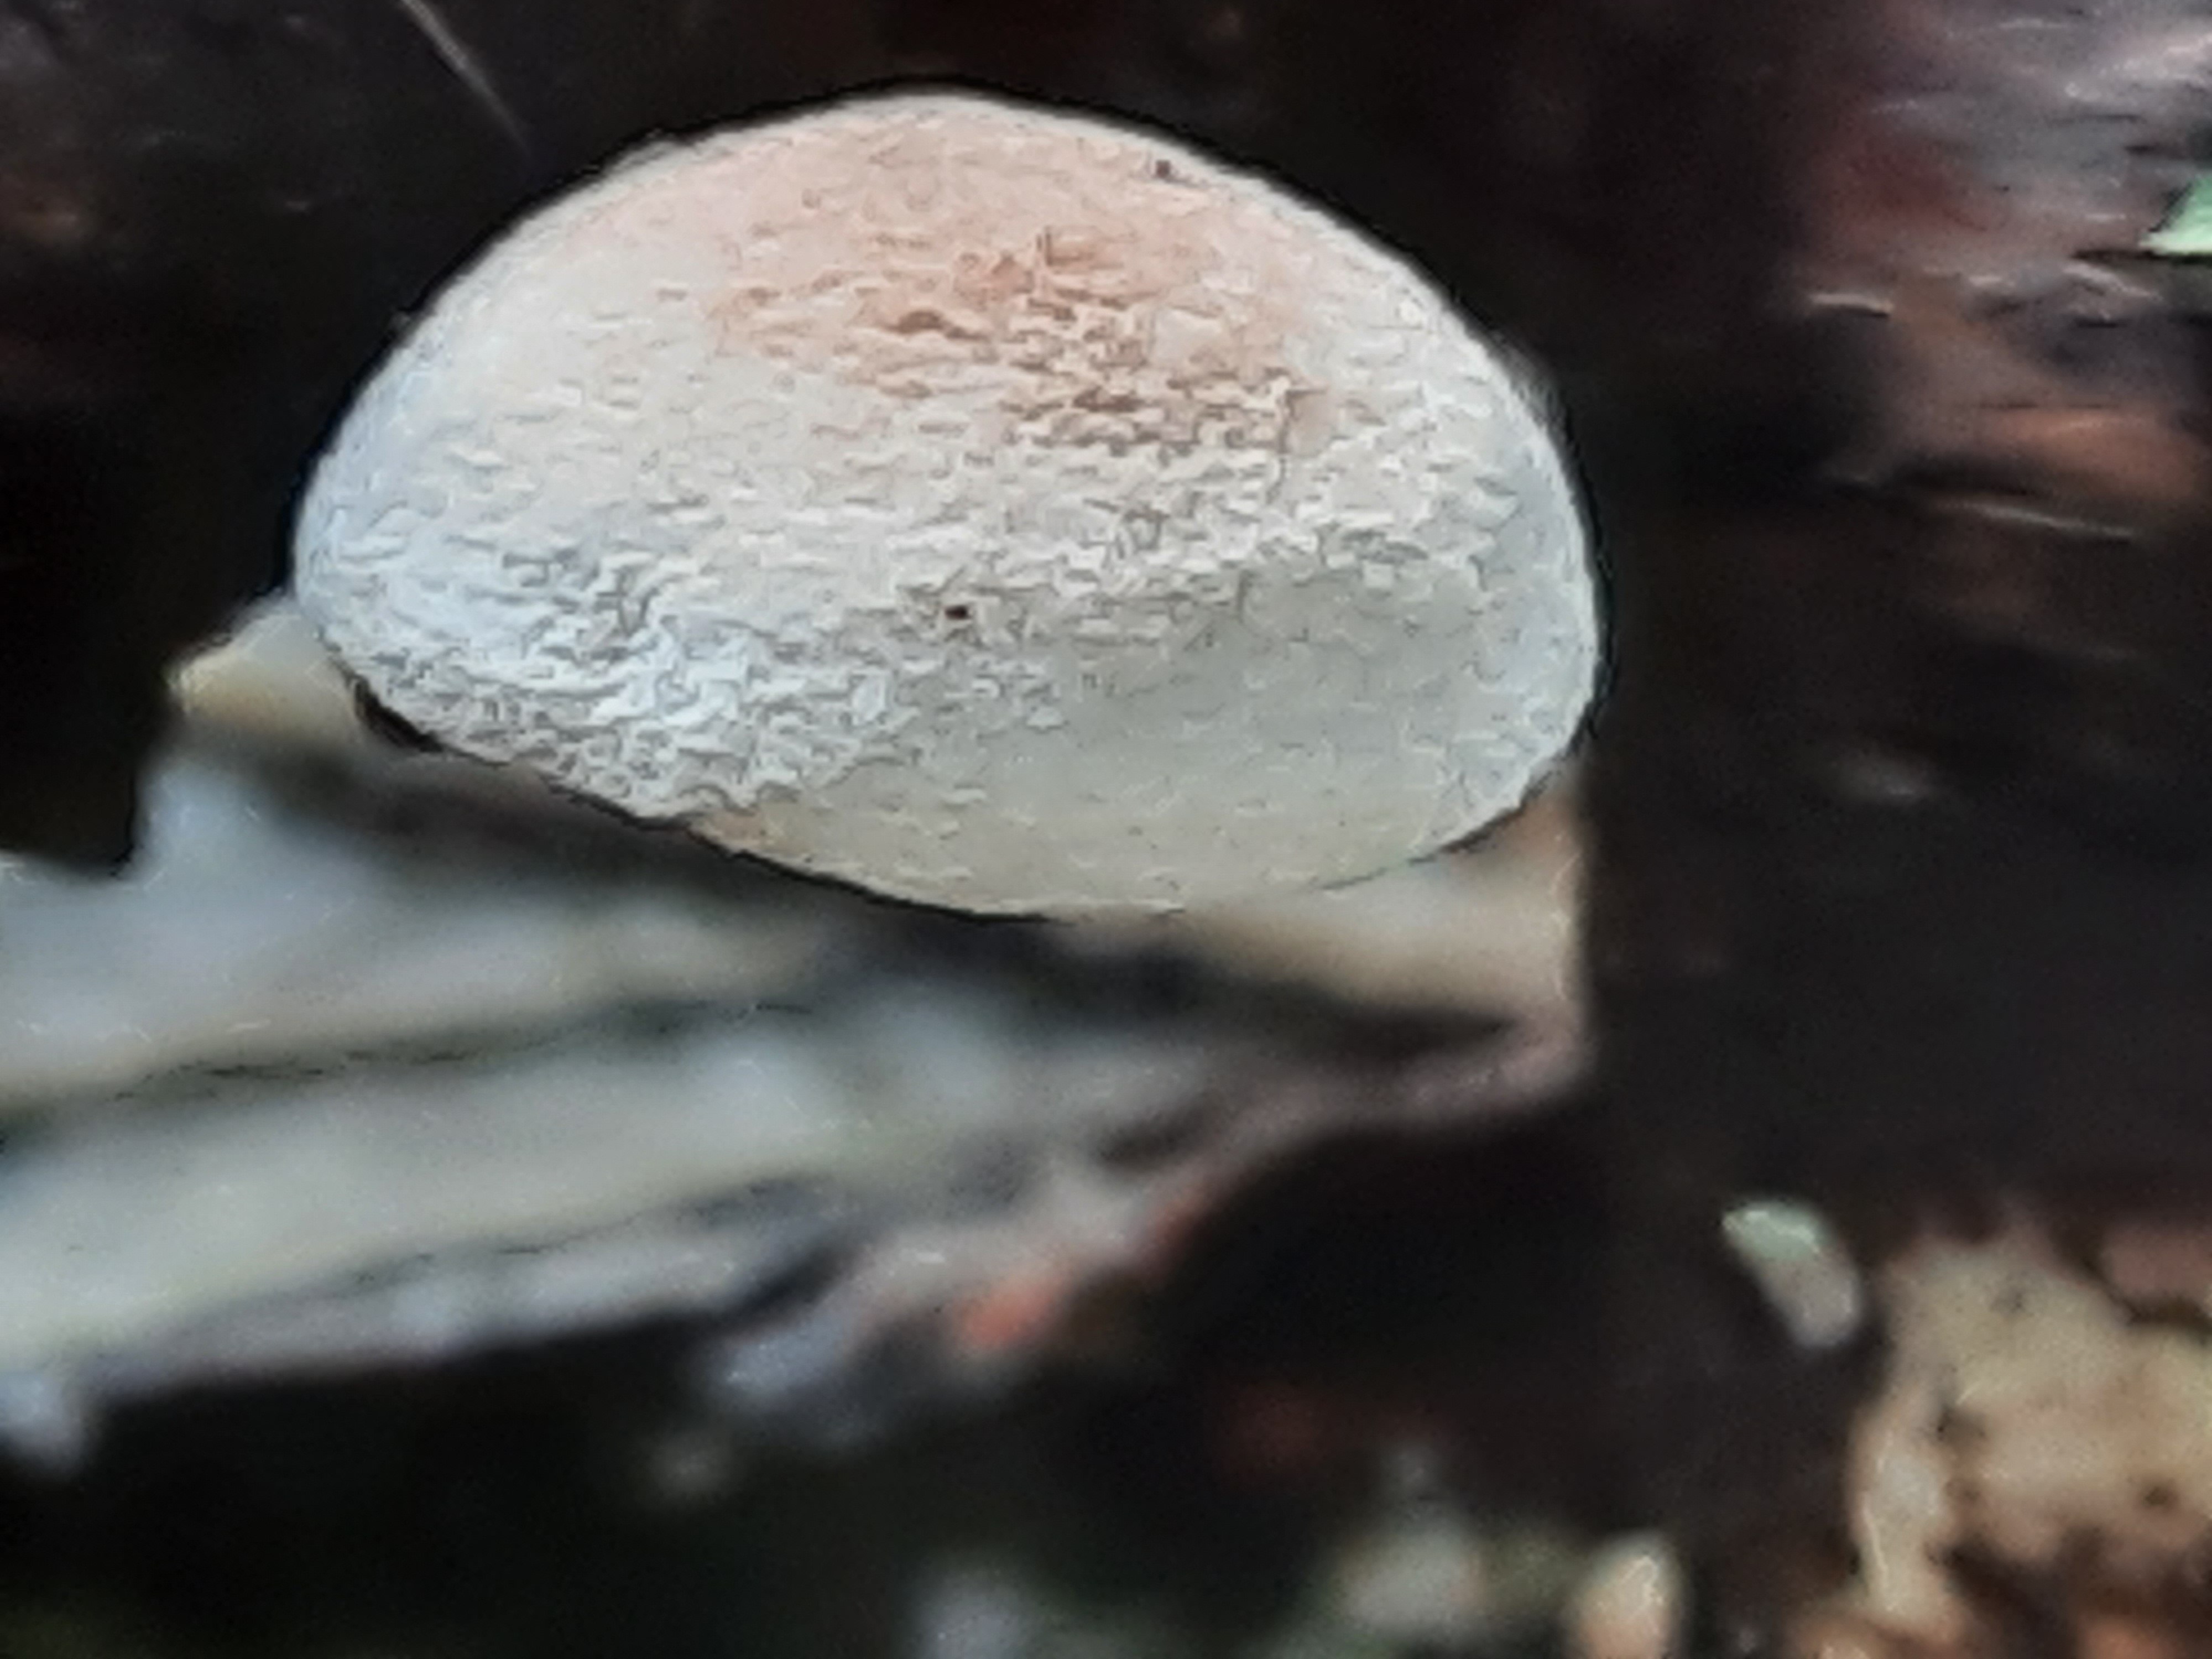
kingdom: Fungi
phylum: Basidiomycota
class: Agaricomycetes
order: Agaricales
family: Omphalotaceae
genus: Collybiopsis
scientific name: Collybiopsis ramealis
